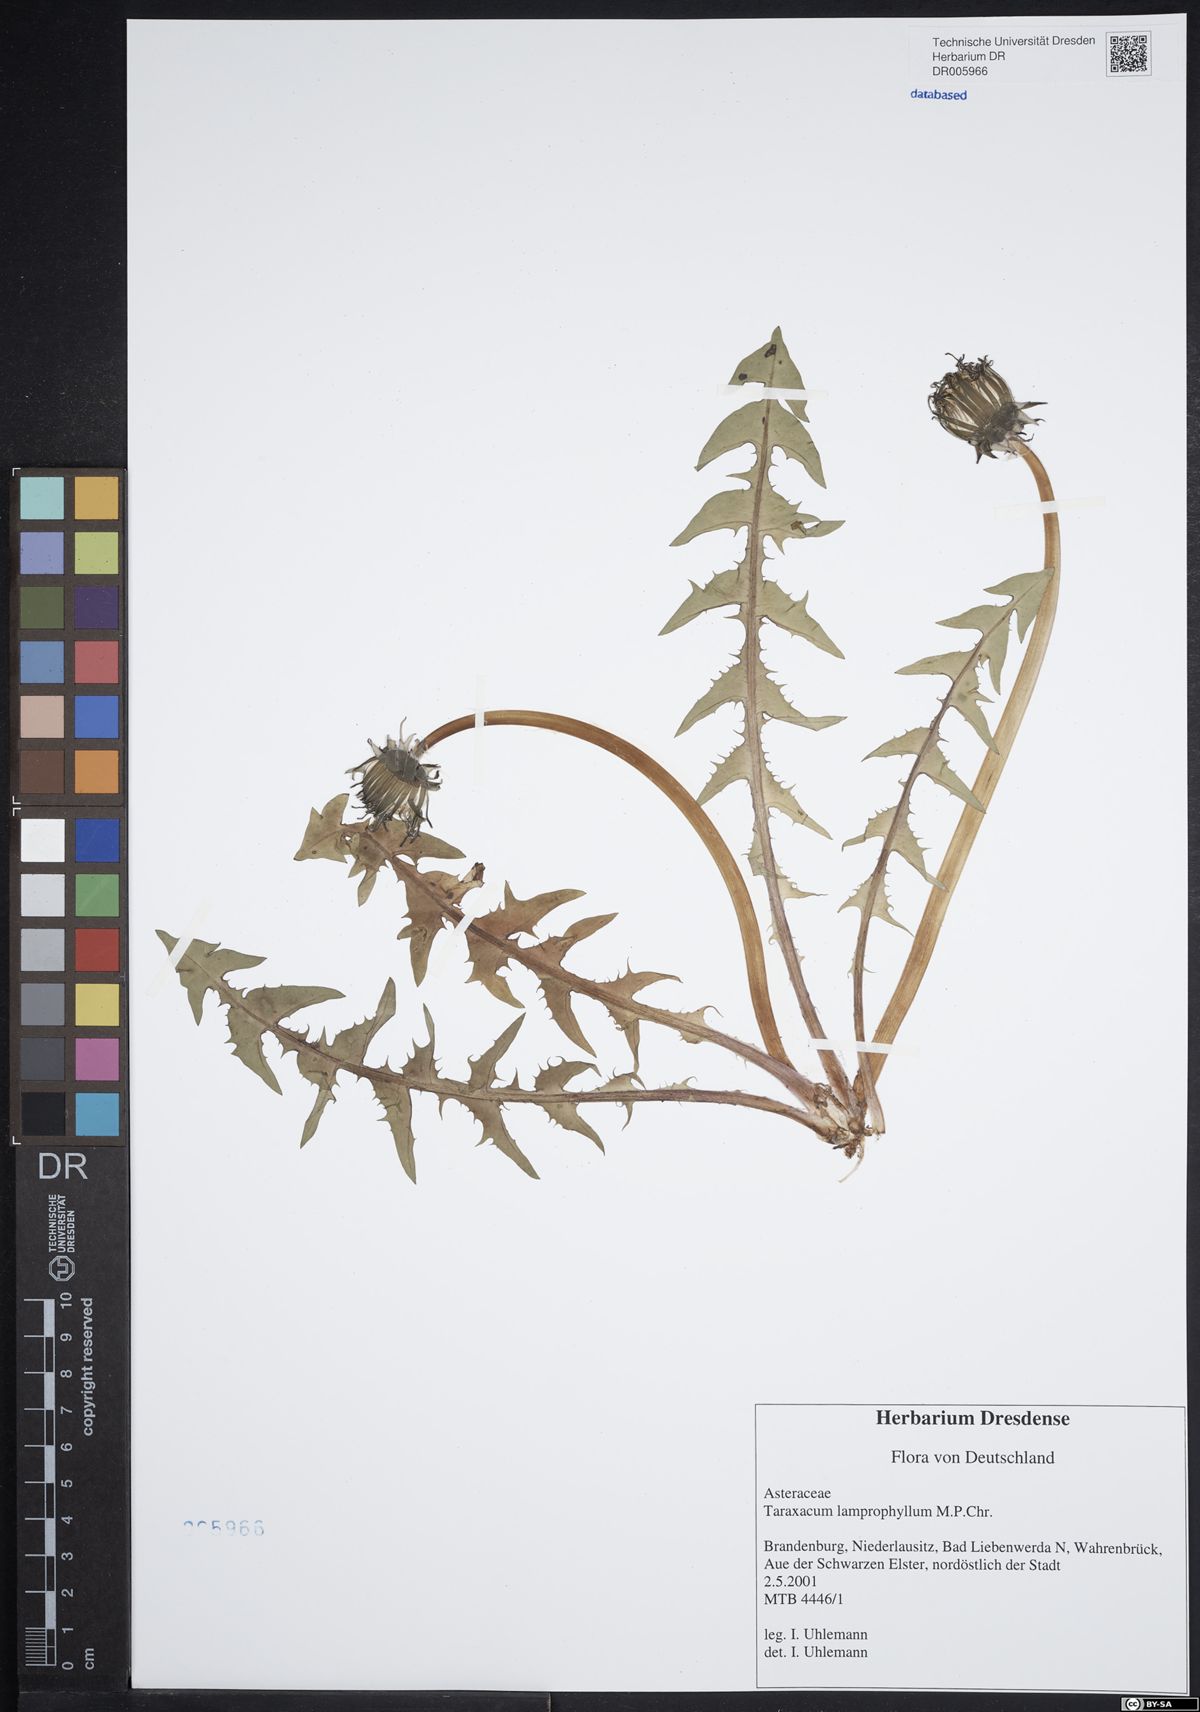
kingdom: Plantae
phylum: Tracheophyta
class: Magnoliopsida
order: Asterales
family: Asteraceae
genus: Taraxacum
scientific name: Taraxacum lamprophyllum
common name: Lustrous-leaved dandelion
